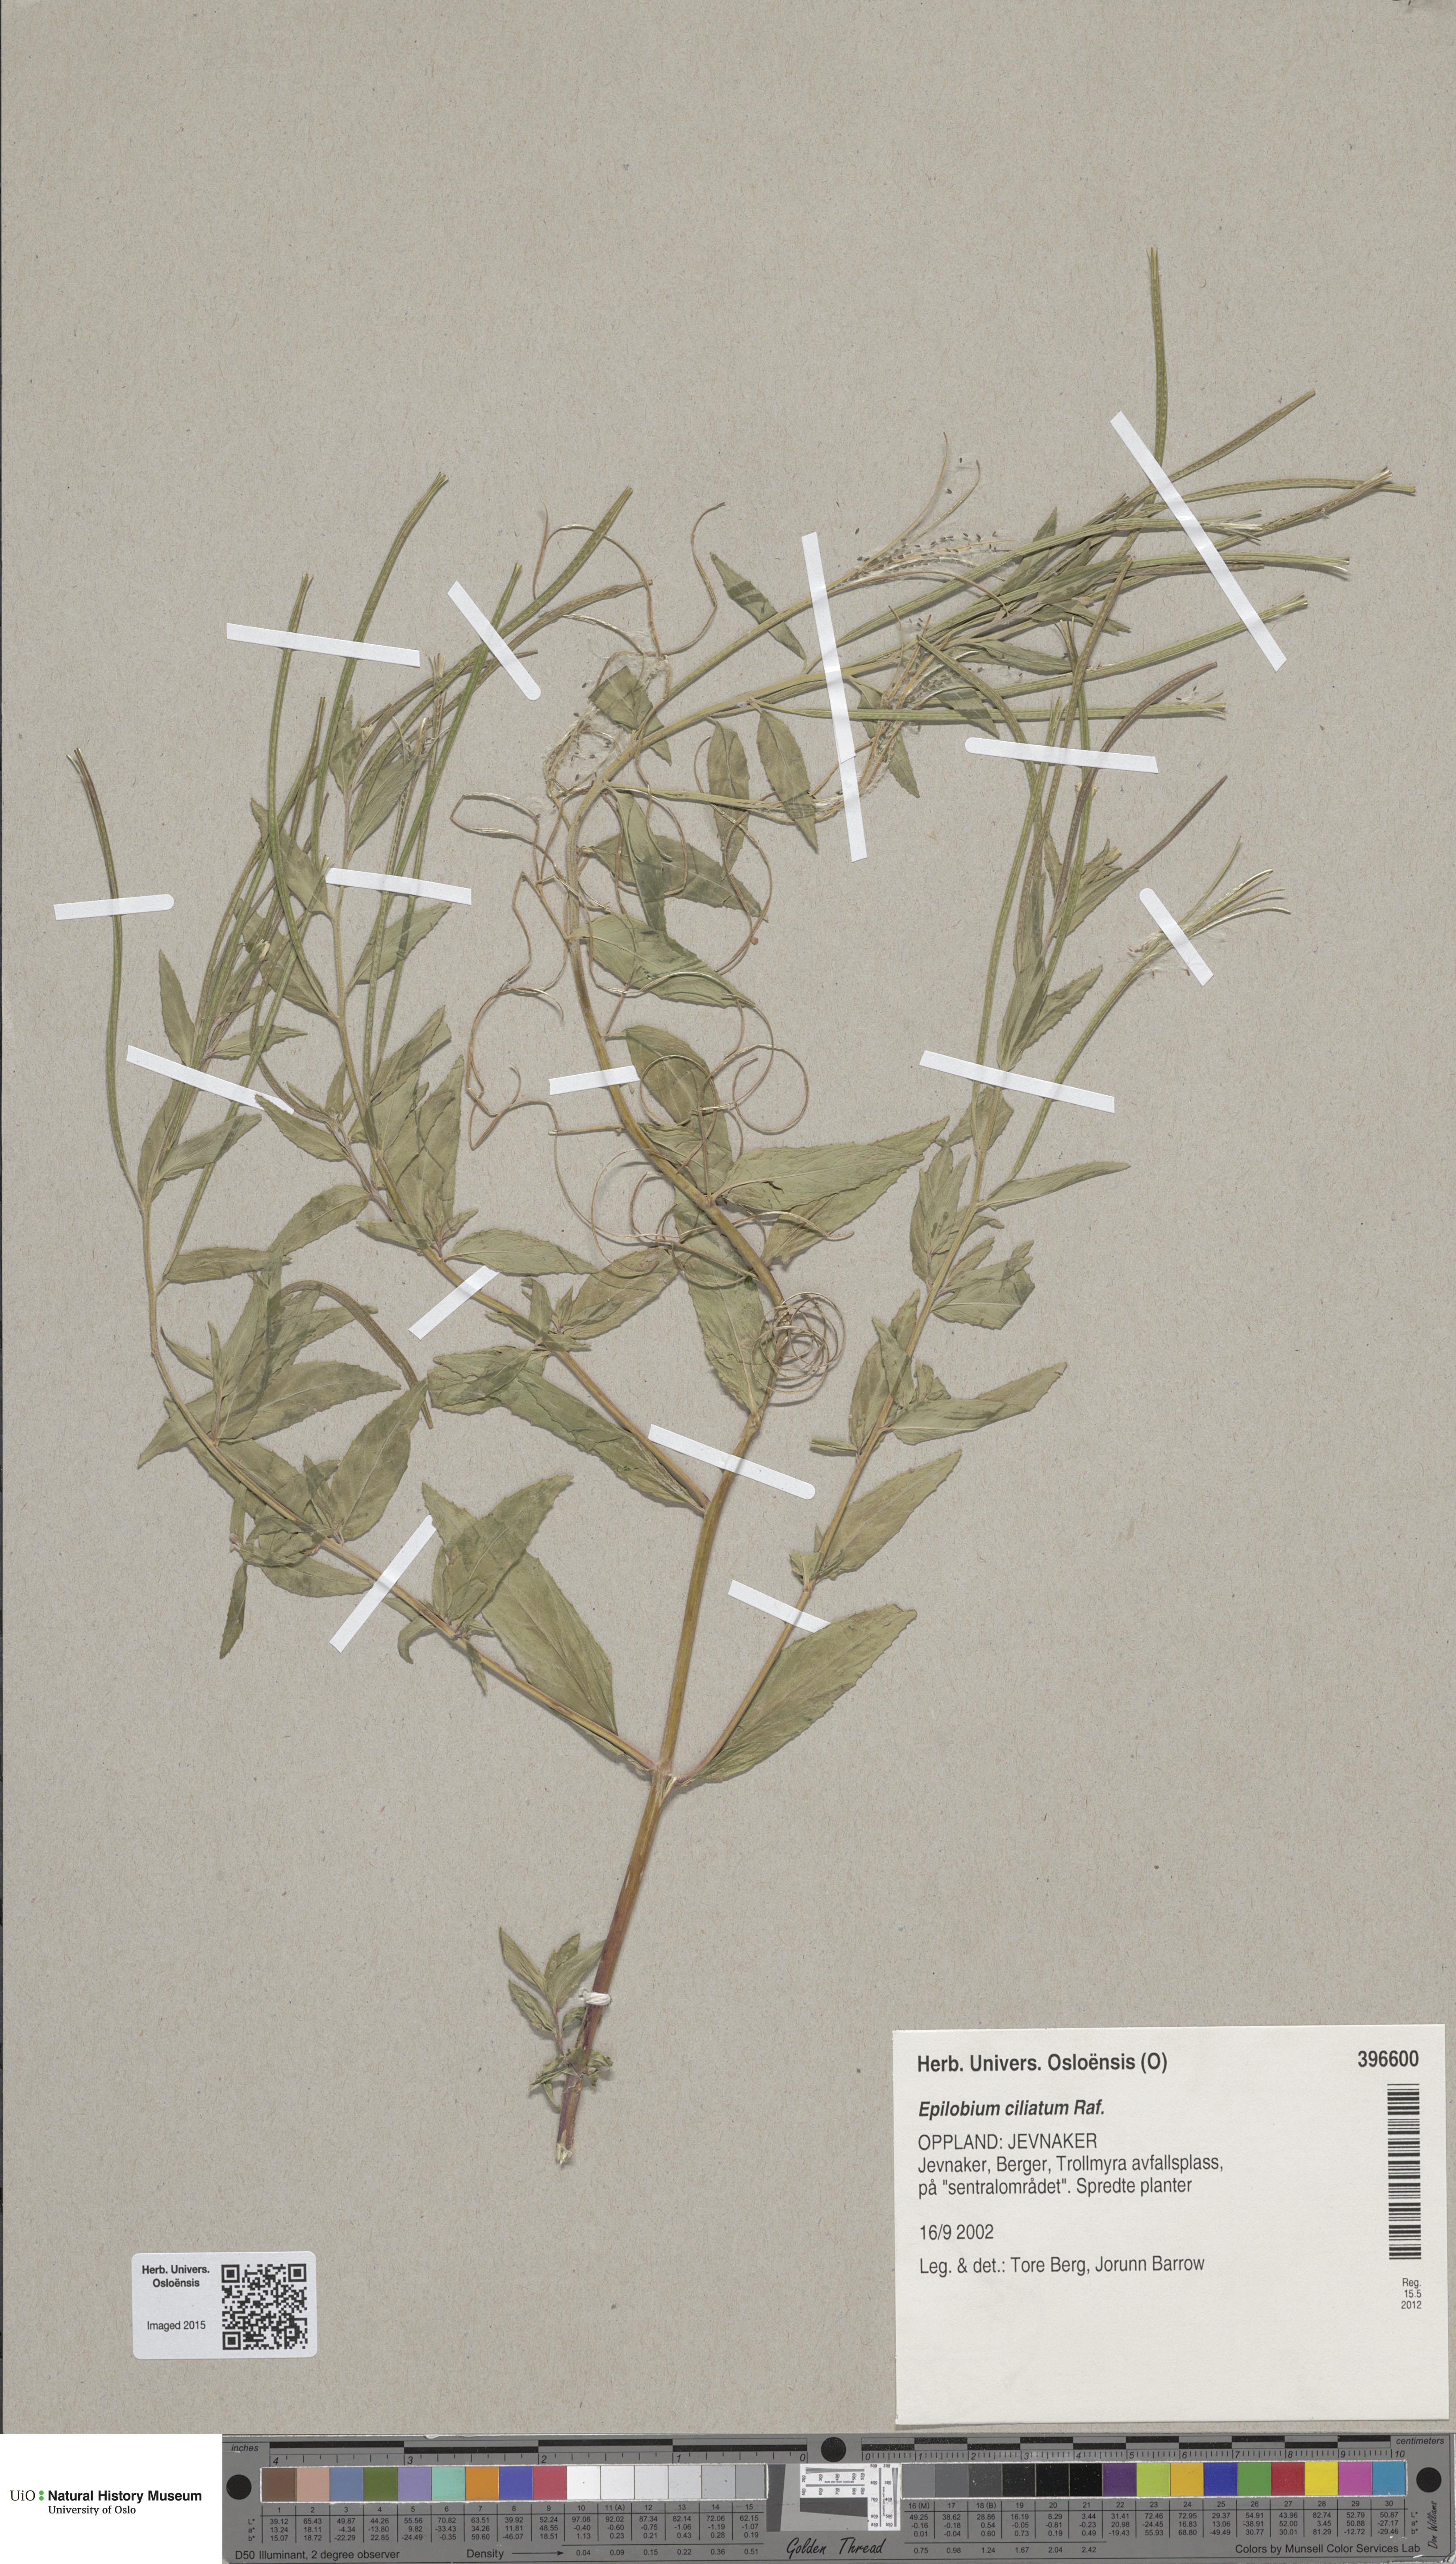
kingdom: Plantae
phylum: Tracheophyta
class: Magnoliopsida
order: Myrtales
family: Onagraceae
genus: Epilobium
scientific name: Epilobium ciliatum
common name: American willowherb
